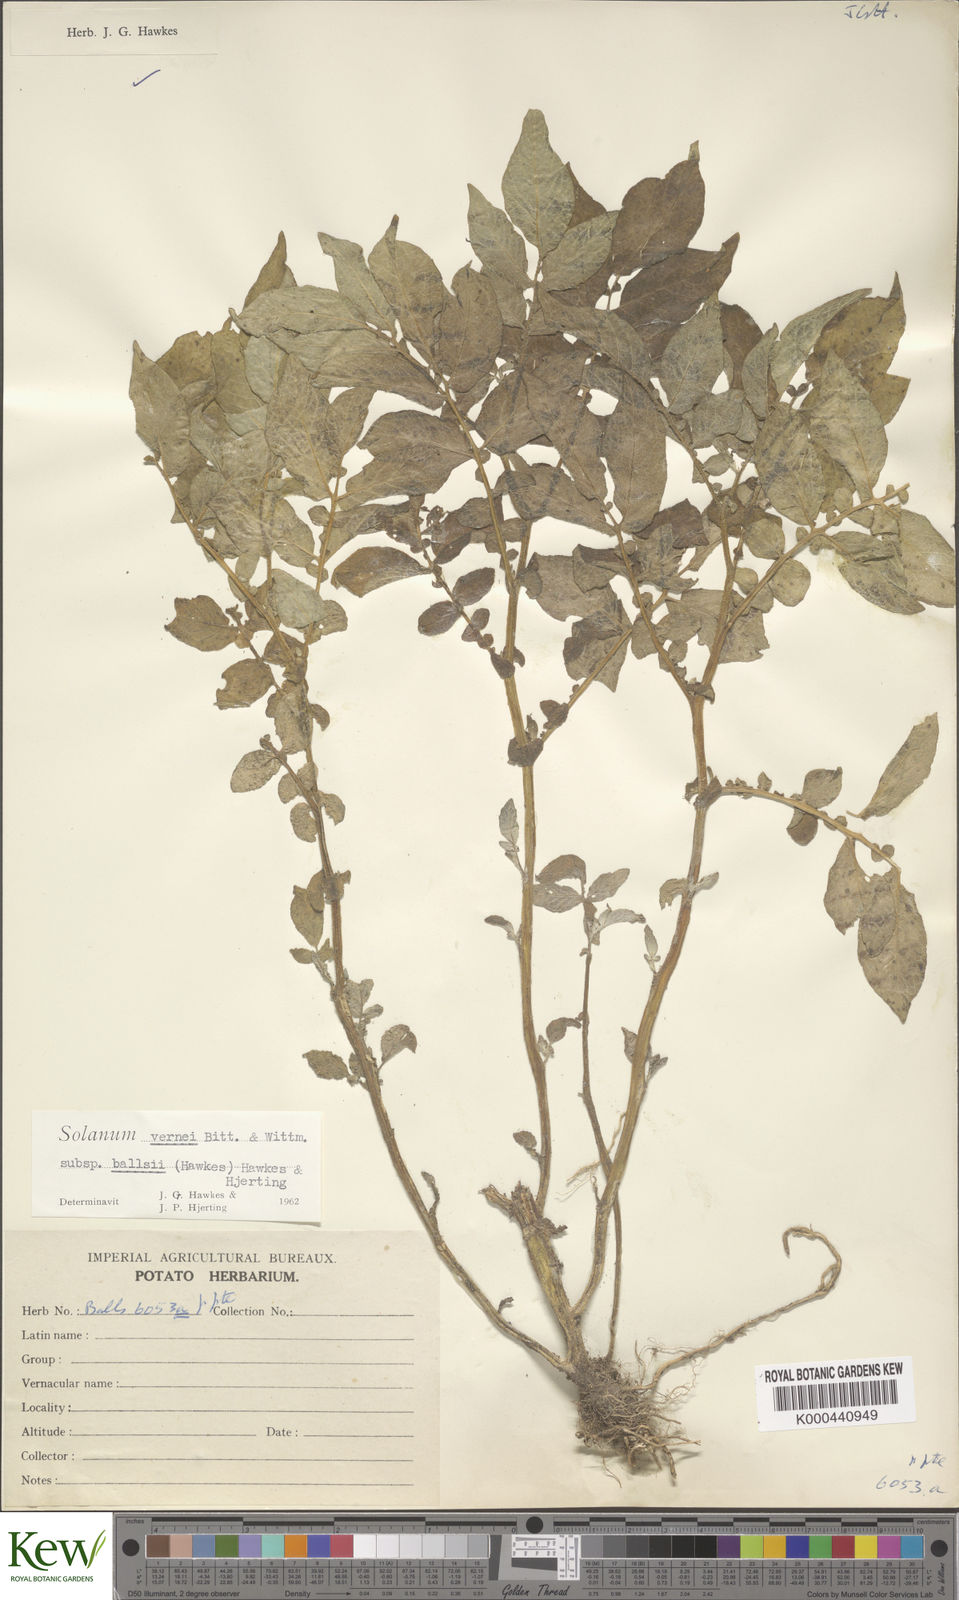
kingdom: Plantae
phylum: Tracheophyta
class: Magnoliopsida
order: Solanales
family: Solanaceae
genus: Solanum
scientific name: Solanum vernei
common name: Purple potato
